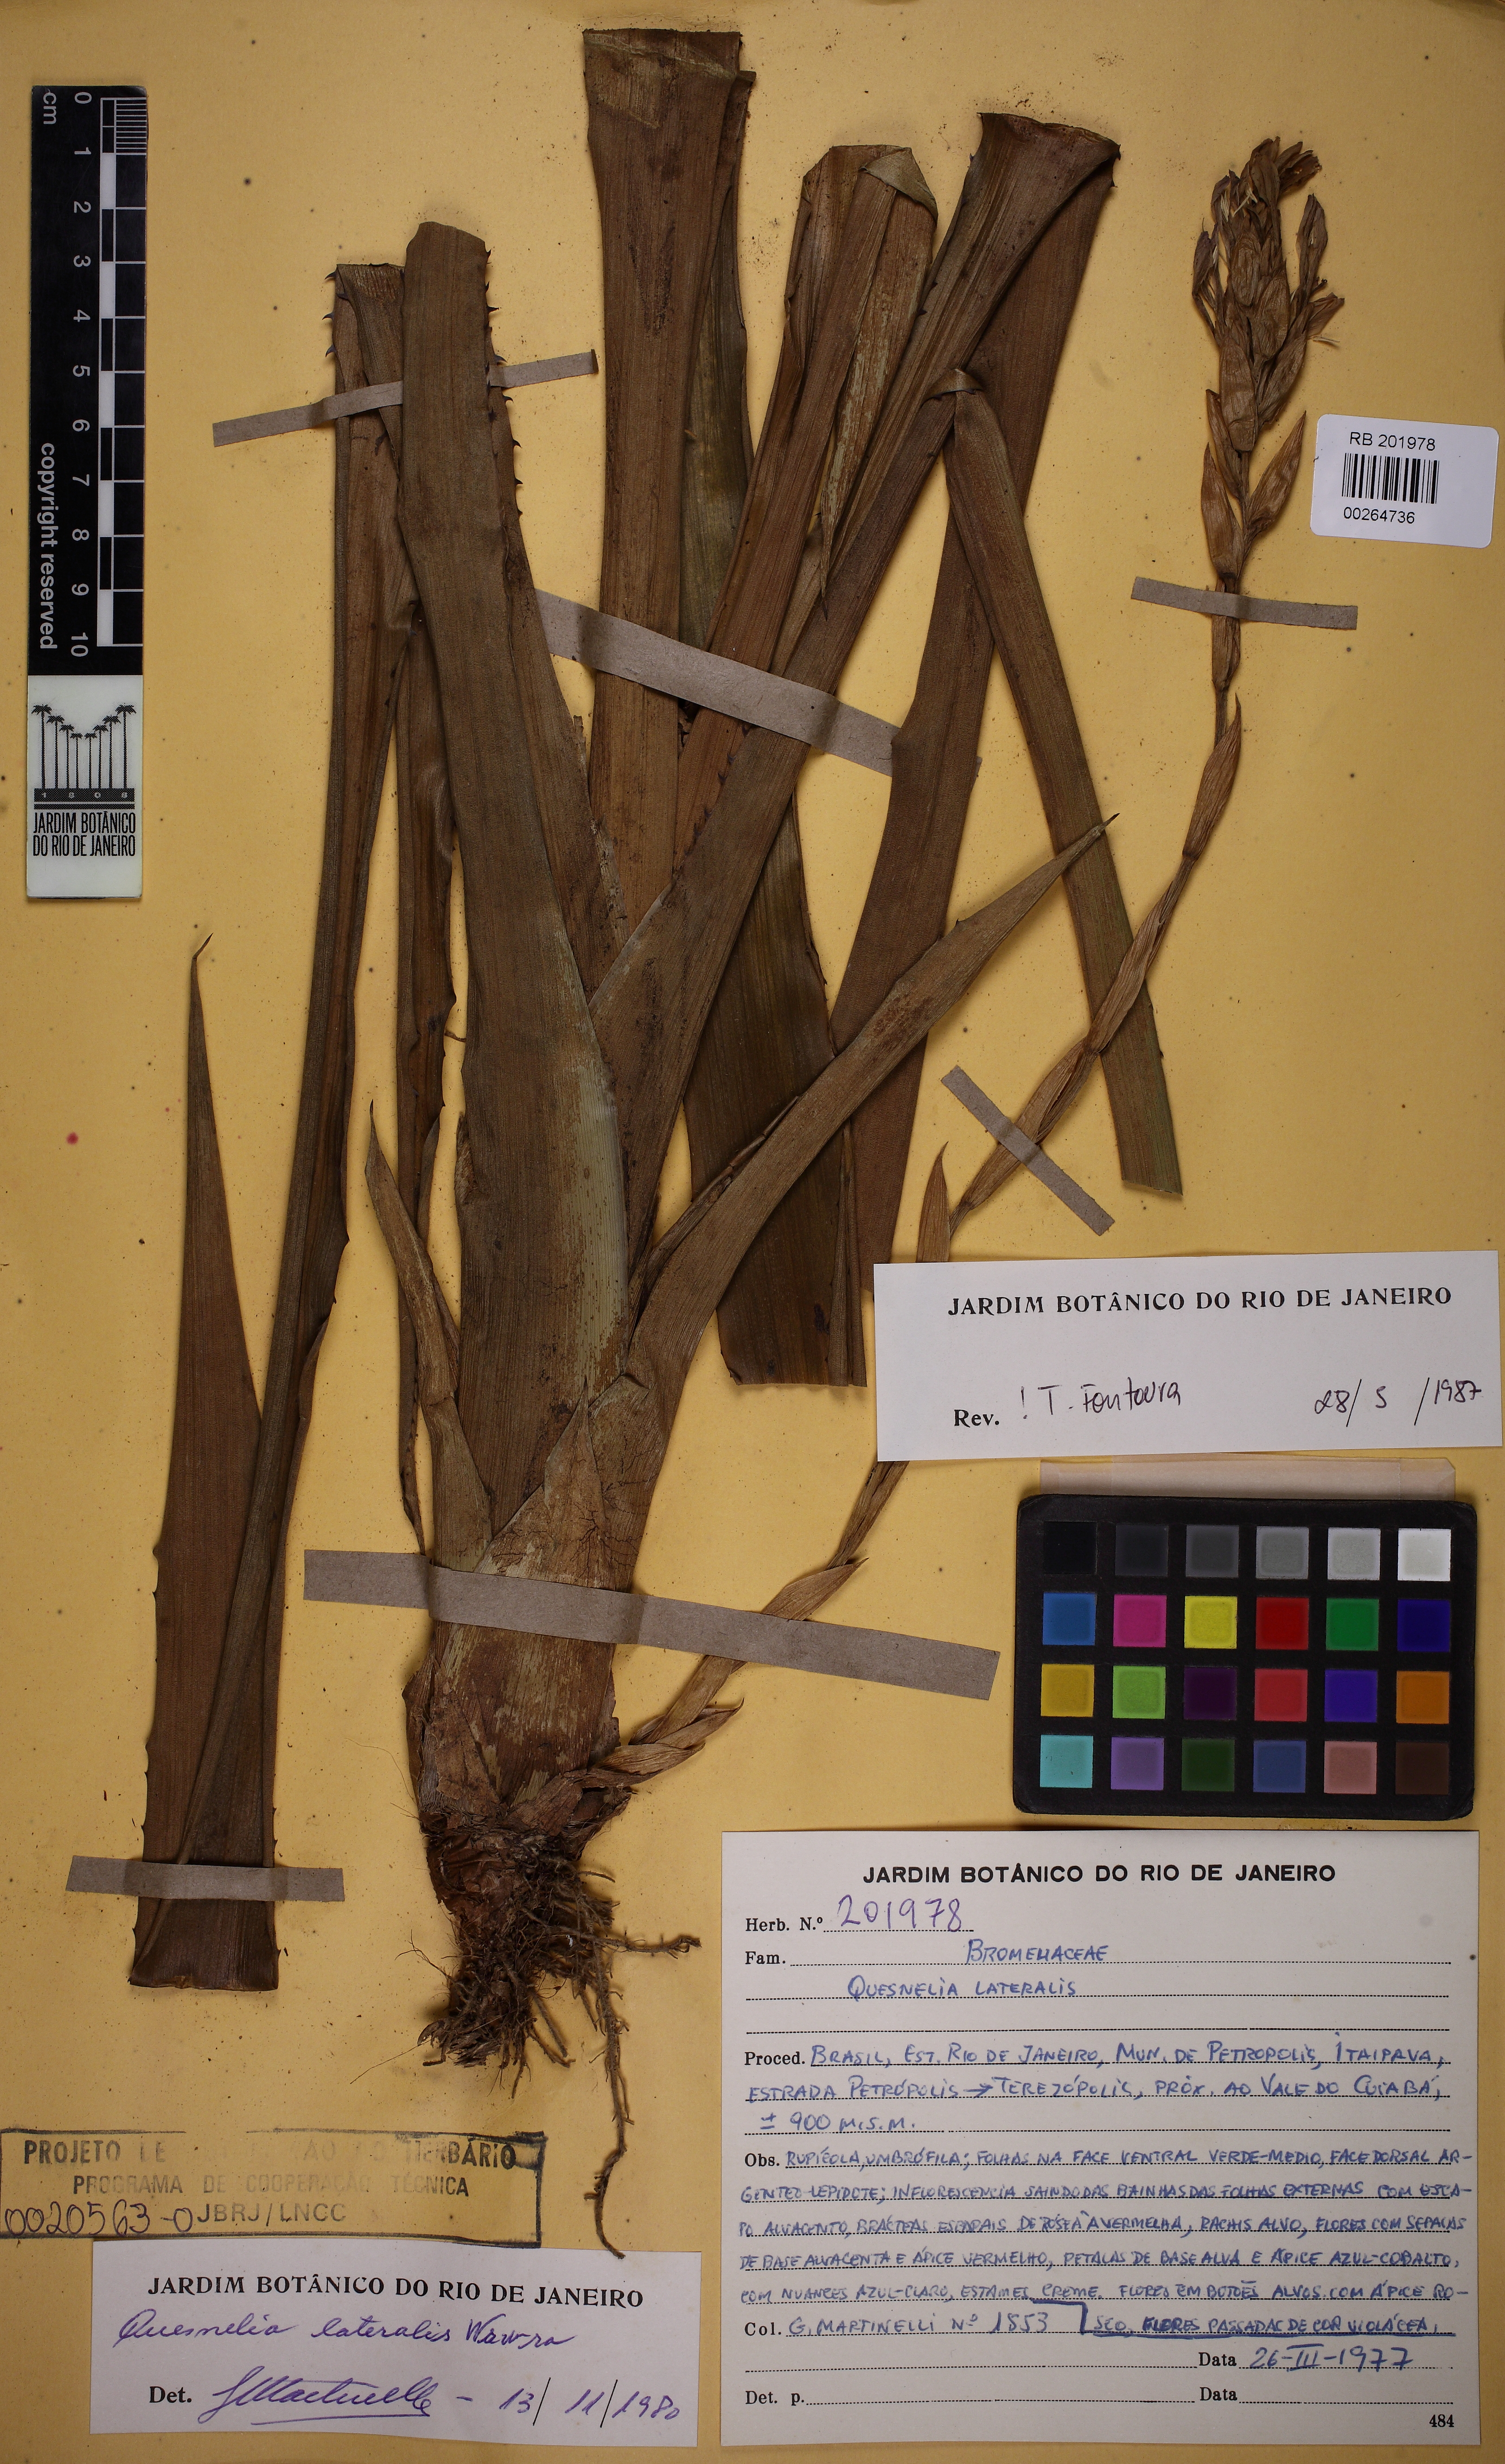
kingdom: Plantae
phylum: Tracheophyta
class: Liliopsida
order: Poales
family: Bromeliaceae
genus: Quesnelia
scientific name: Quesnelia lateralis
